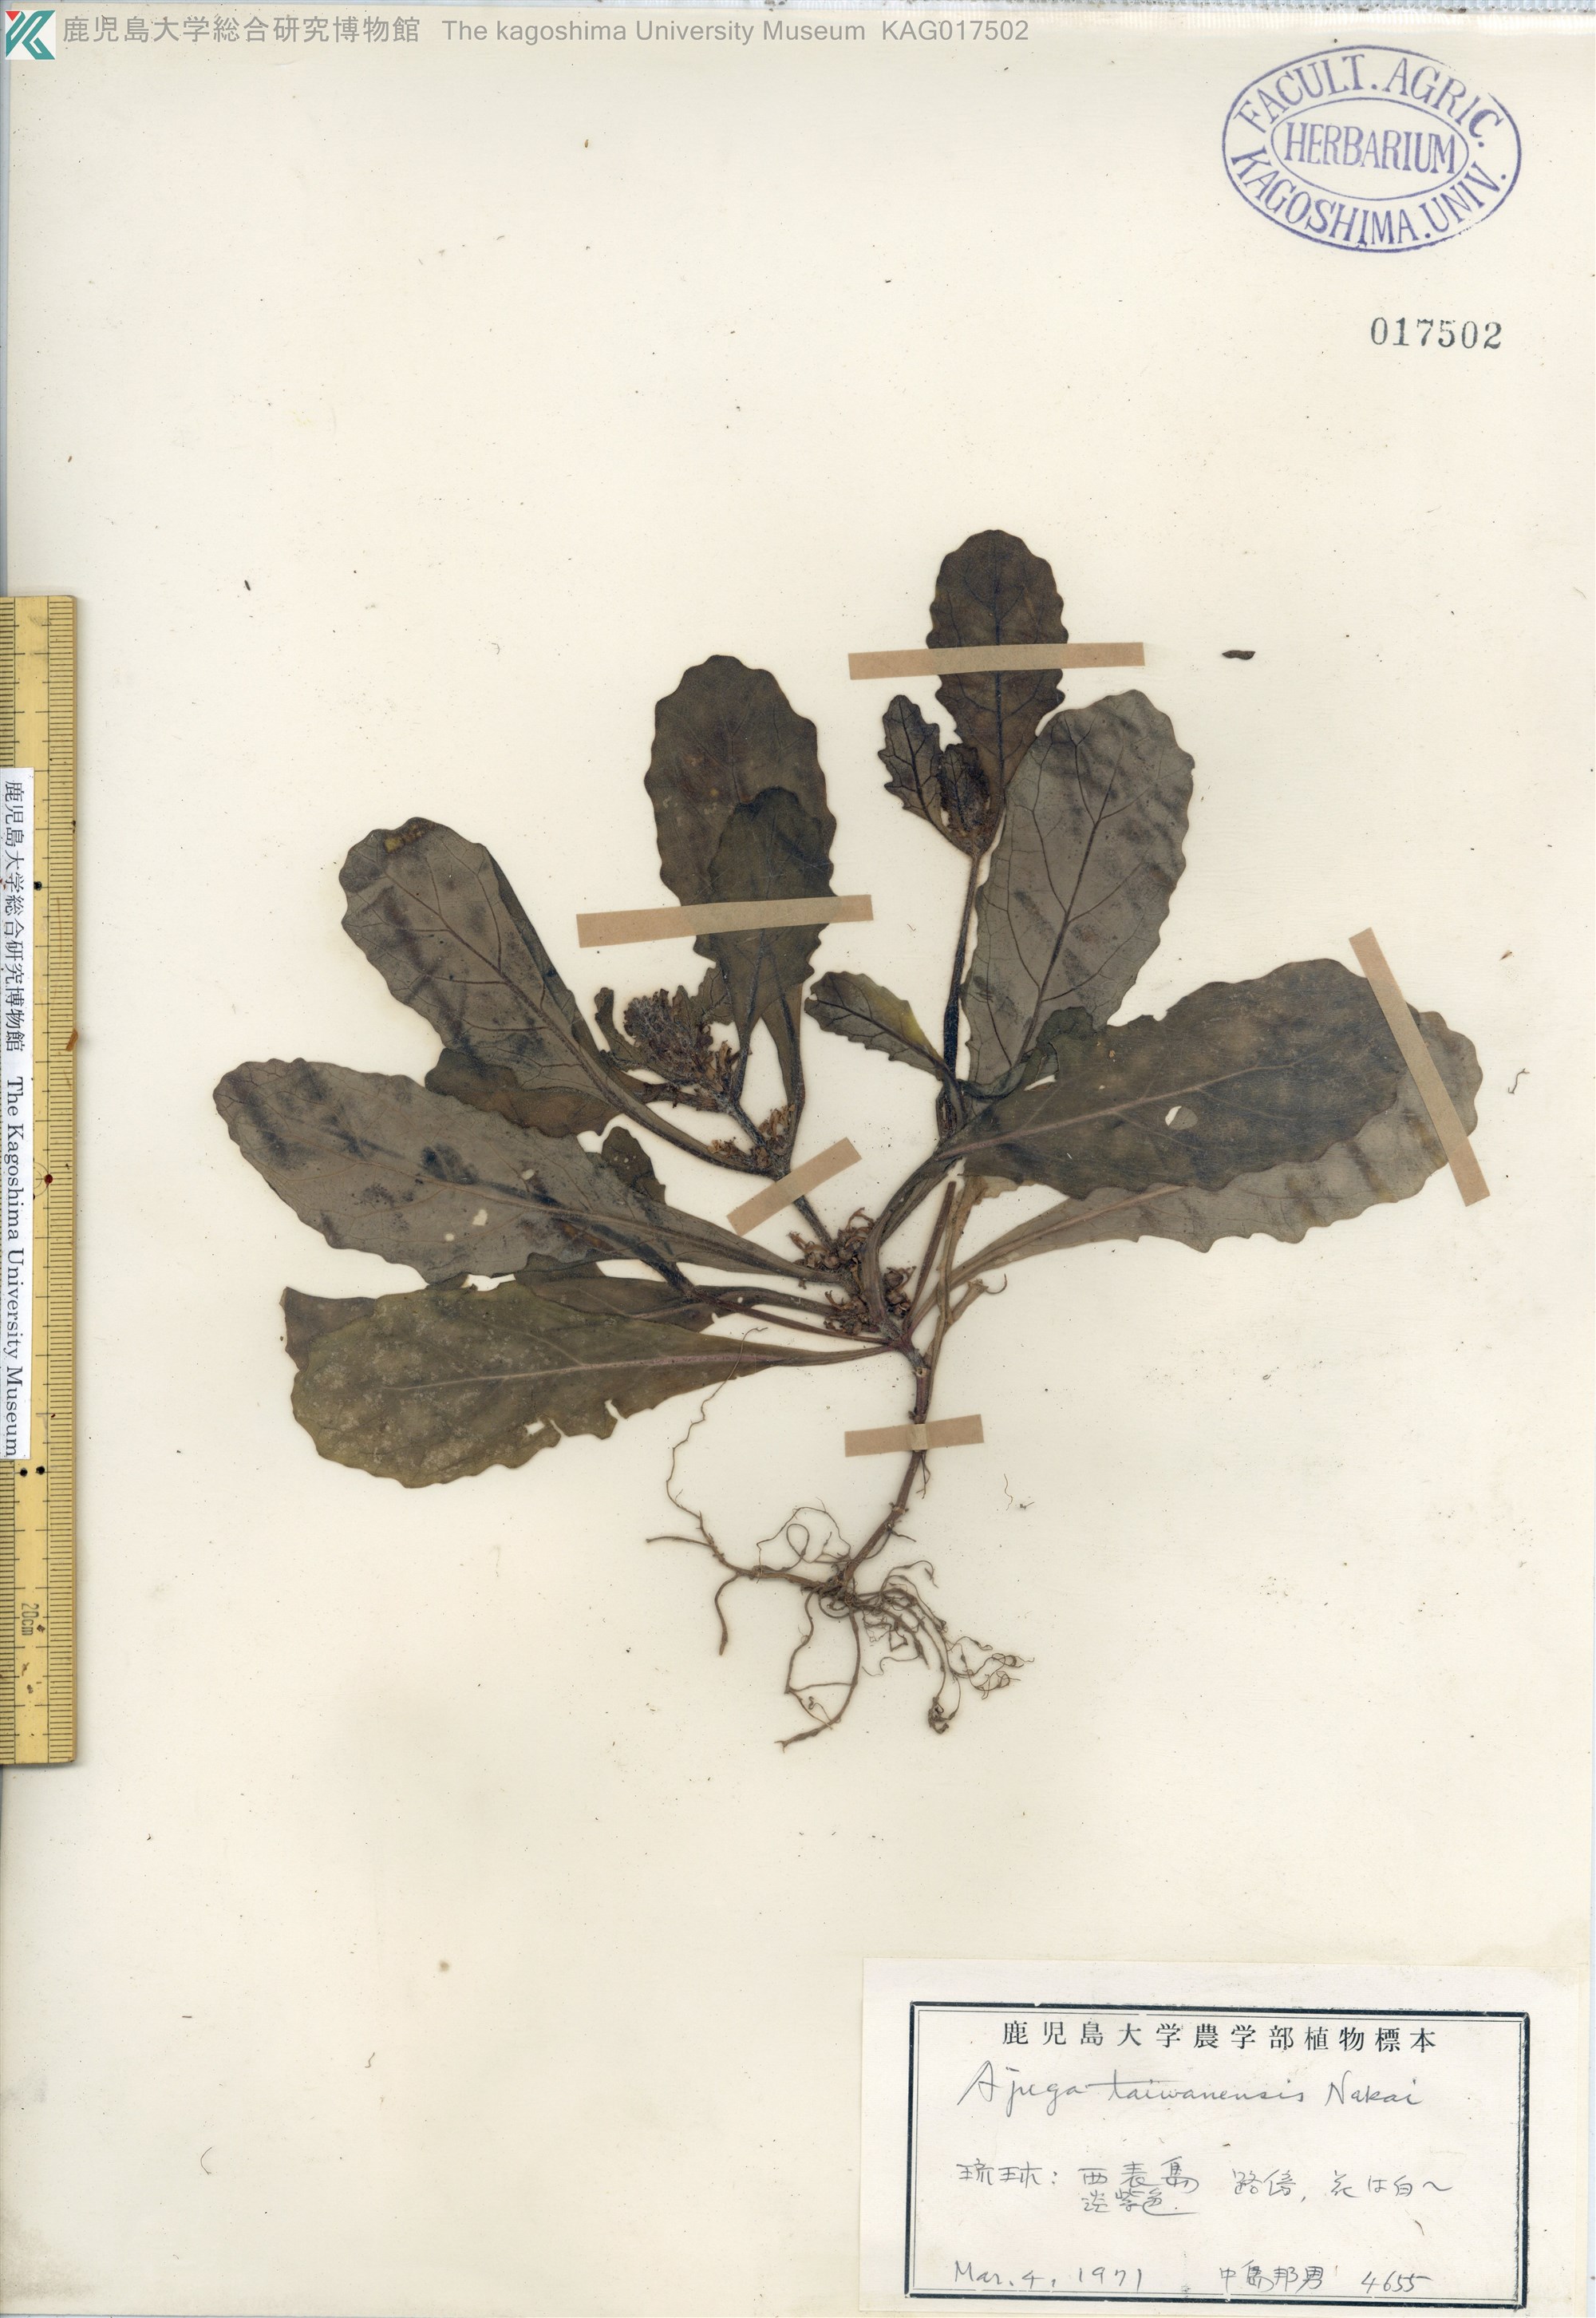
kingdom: Plantae
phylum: Tracheophyta
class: Magnoliopsida
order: Lamiales
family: Lamiaceae
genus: Ajuga
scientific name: Ajuga taiwanensis
